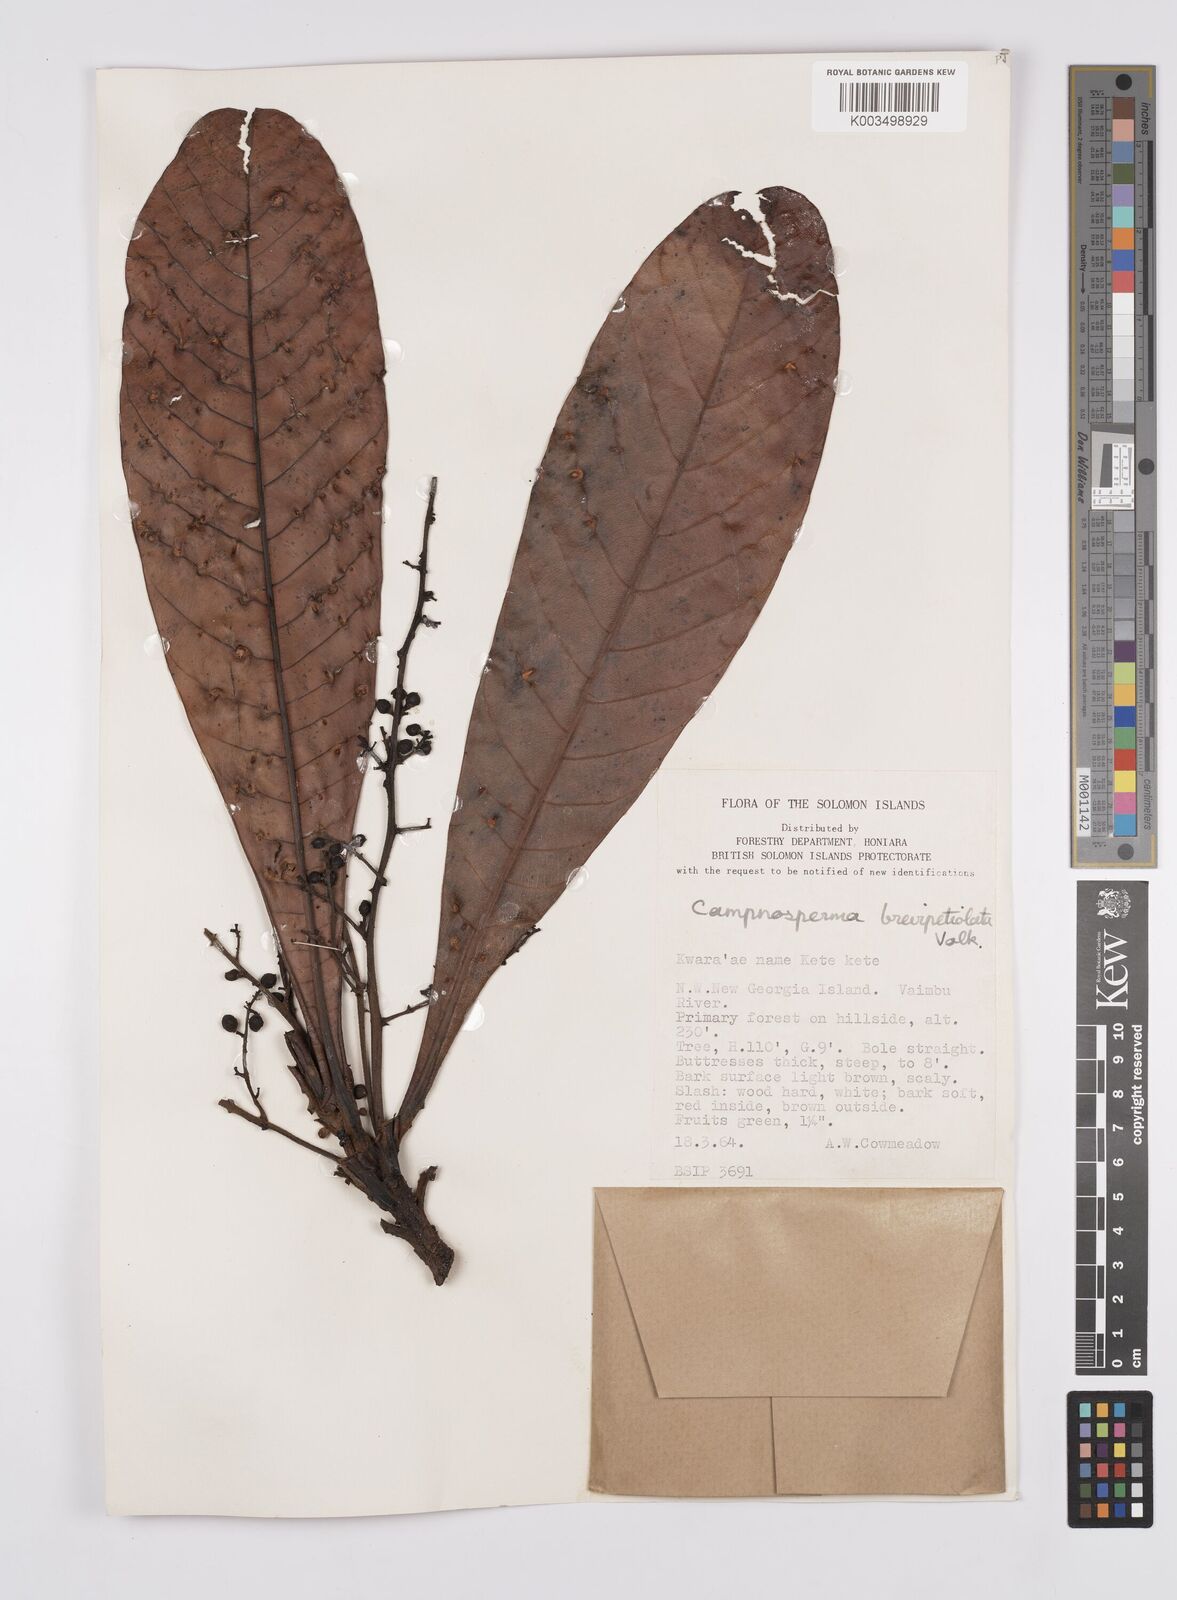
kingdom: Plantae
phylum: Tracheophyta
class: Magnoliopsida
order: Sapindales
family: Anacardiaceae
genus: Campnosperma
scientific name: Campnosperma brevipetiolatum
